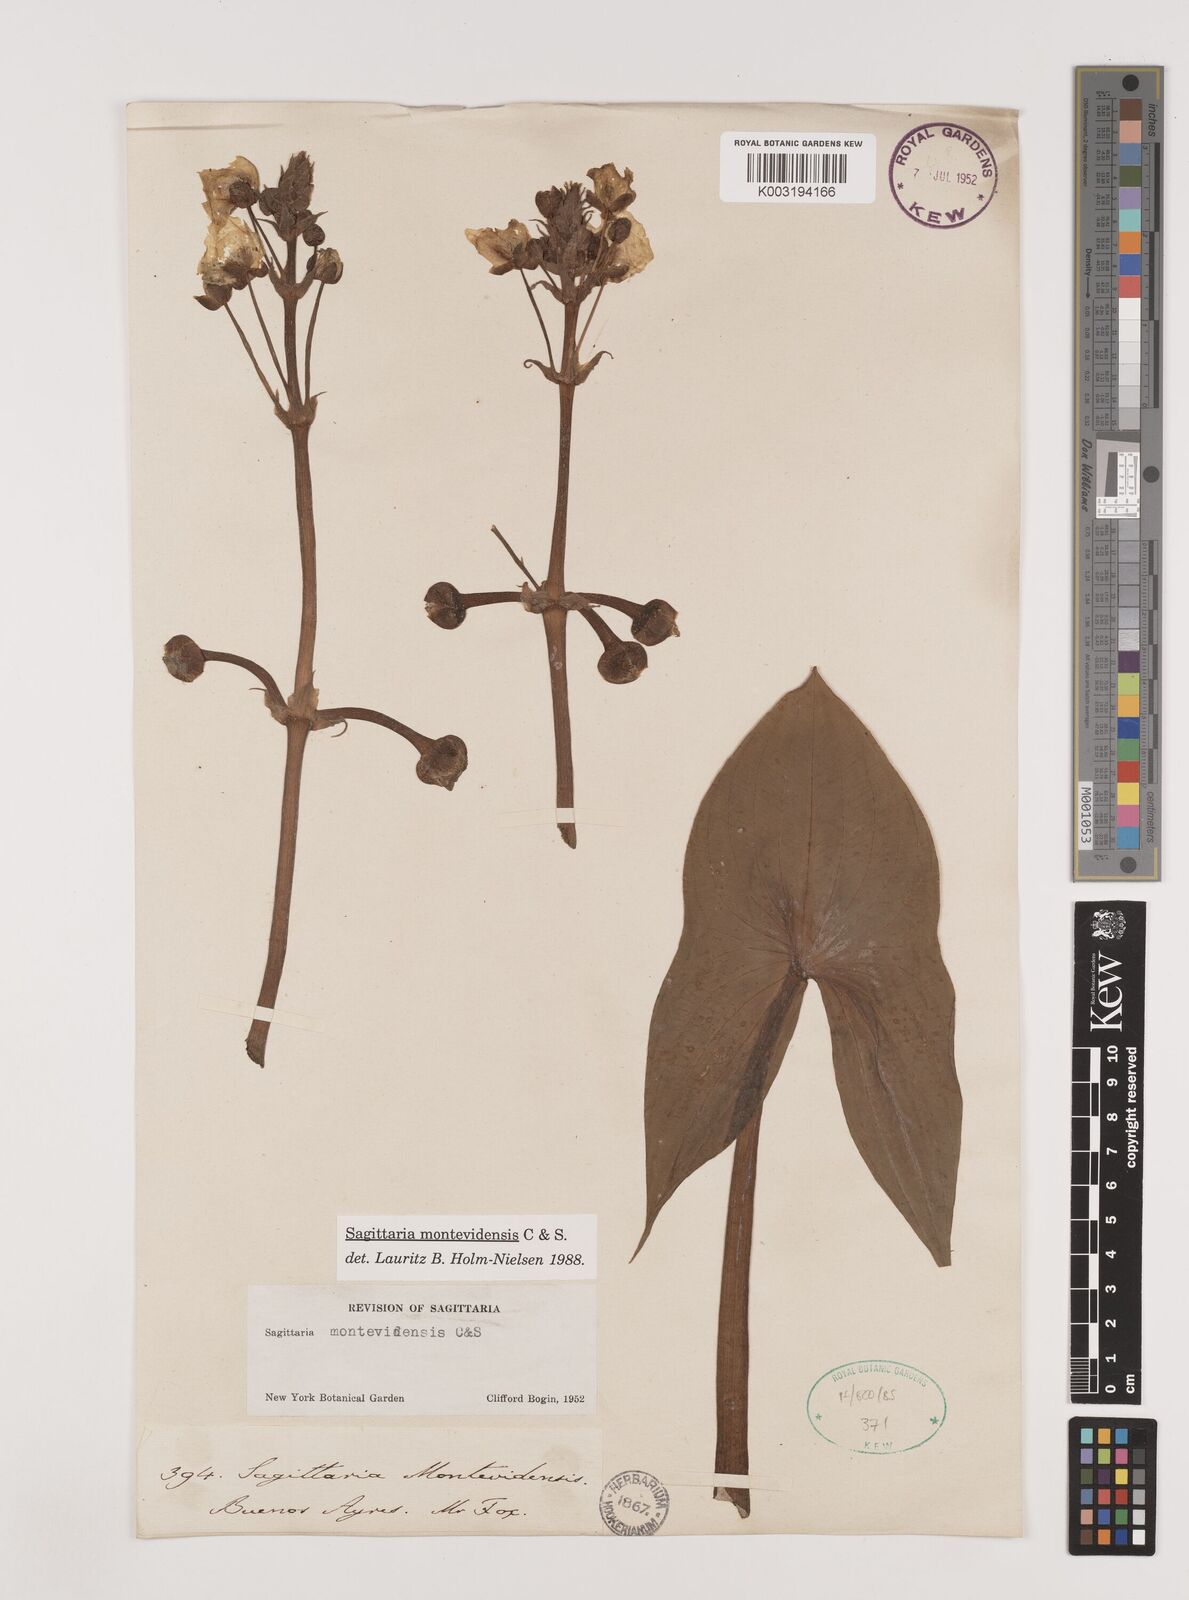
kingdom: Plantae
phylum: Tracheophyta
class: Liliopsida
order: Alismatales
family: Alismataceae
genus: Sagittaria
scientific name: Sagittaria montevidensis
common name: Giant arrowhead
